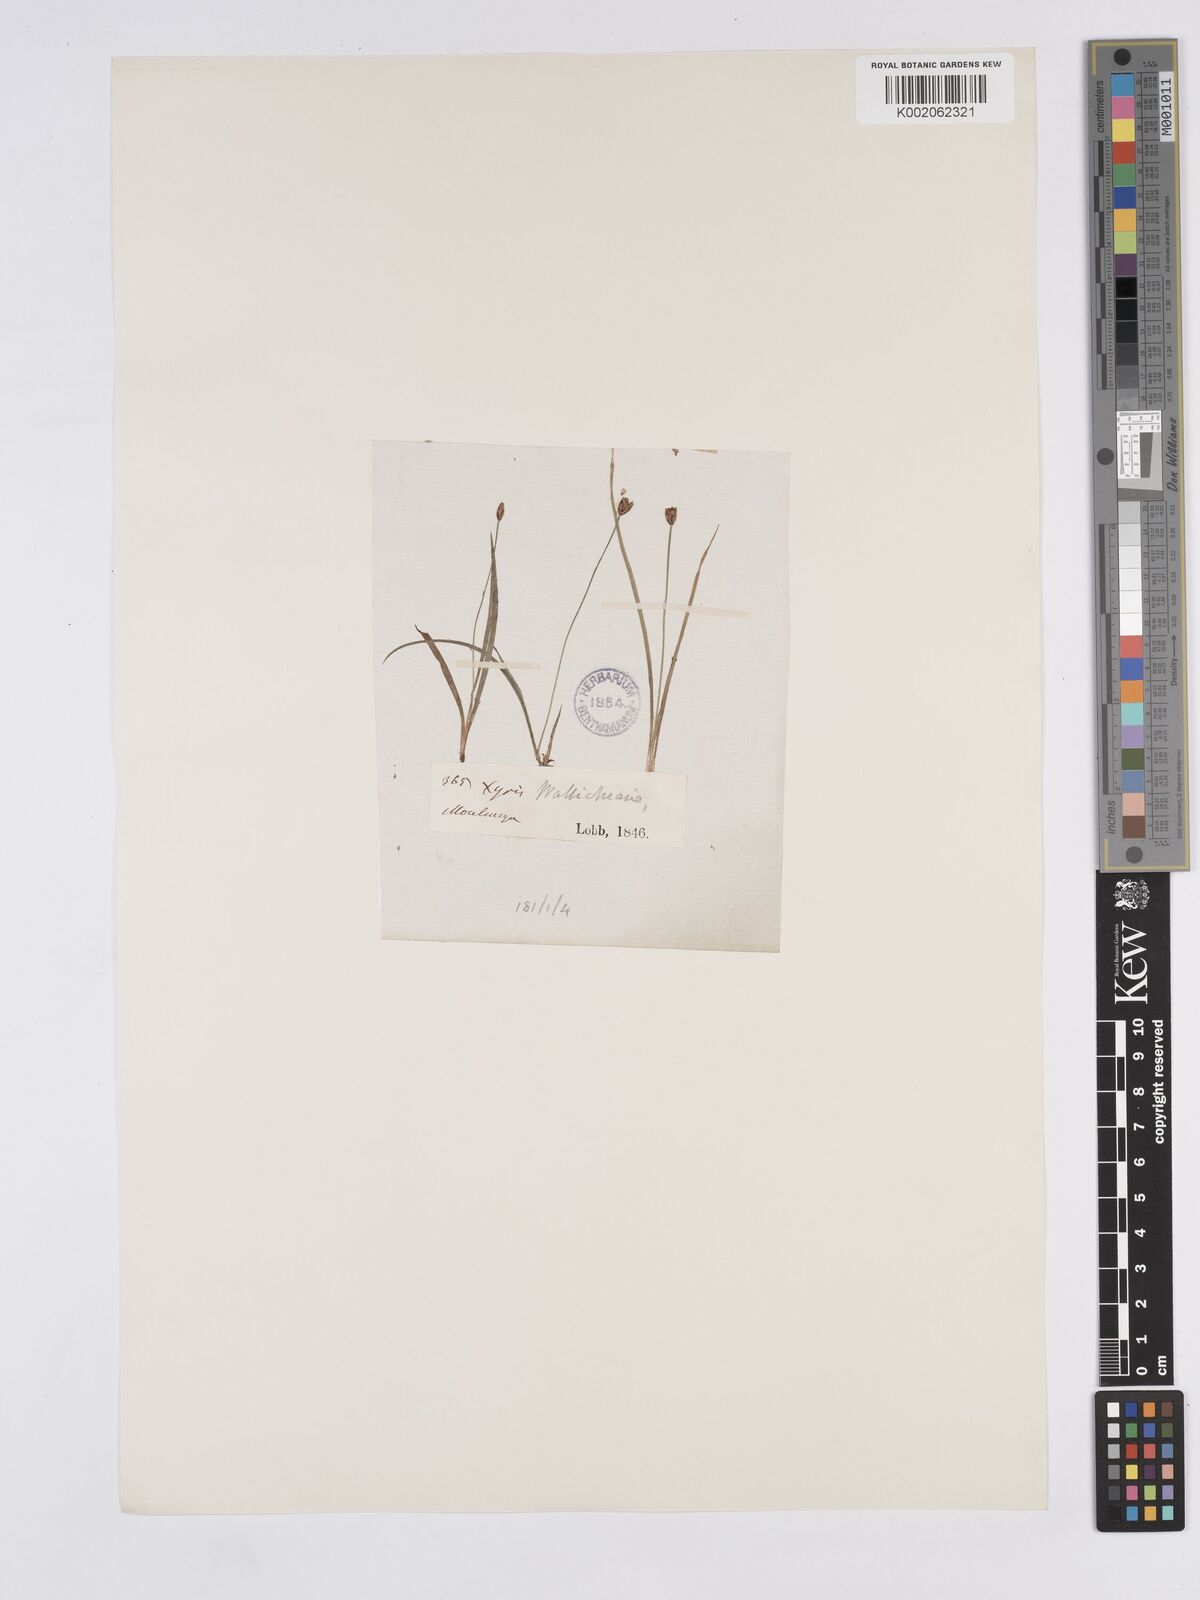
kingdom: Plantae
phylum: Tracheophyta
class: Liliopsida
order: Poales
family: Xyridaceae
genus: Xyris
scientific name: Xyris wallichii
